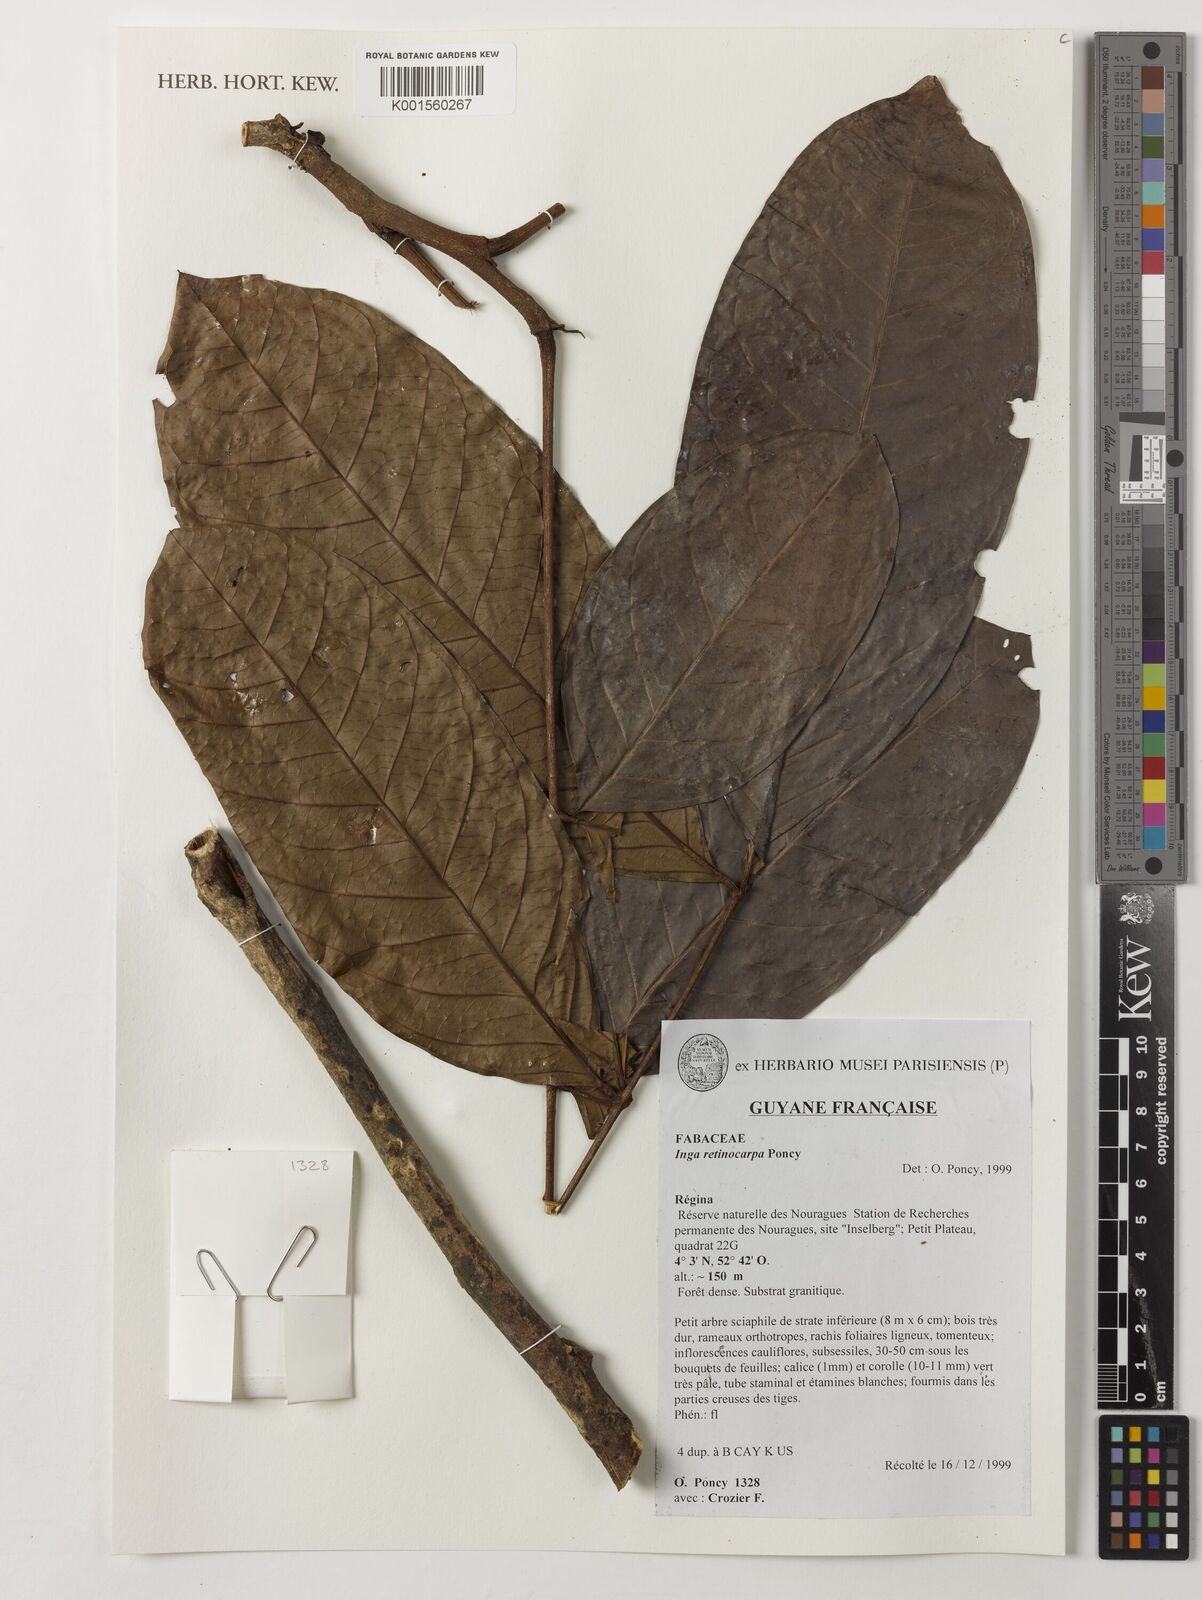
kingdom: Plantae
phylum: Tracheophyta
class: Magnoliopsida
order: Fabales
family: Fabaceae
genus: Inga
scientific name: Inga retinocarpa
